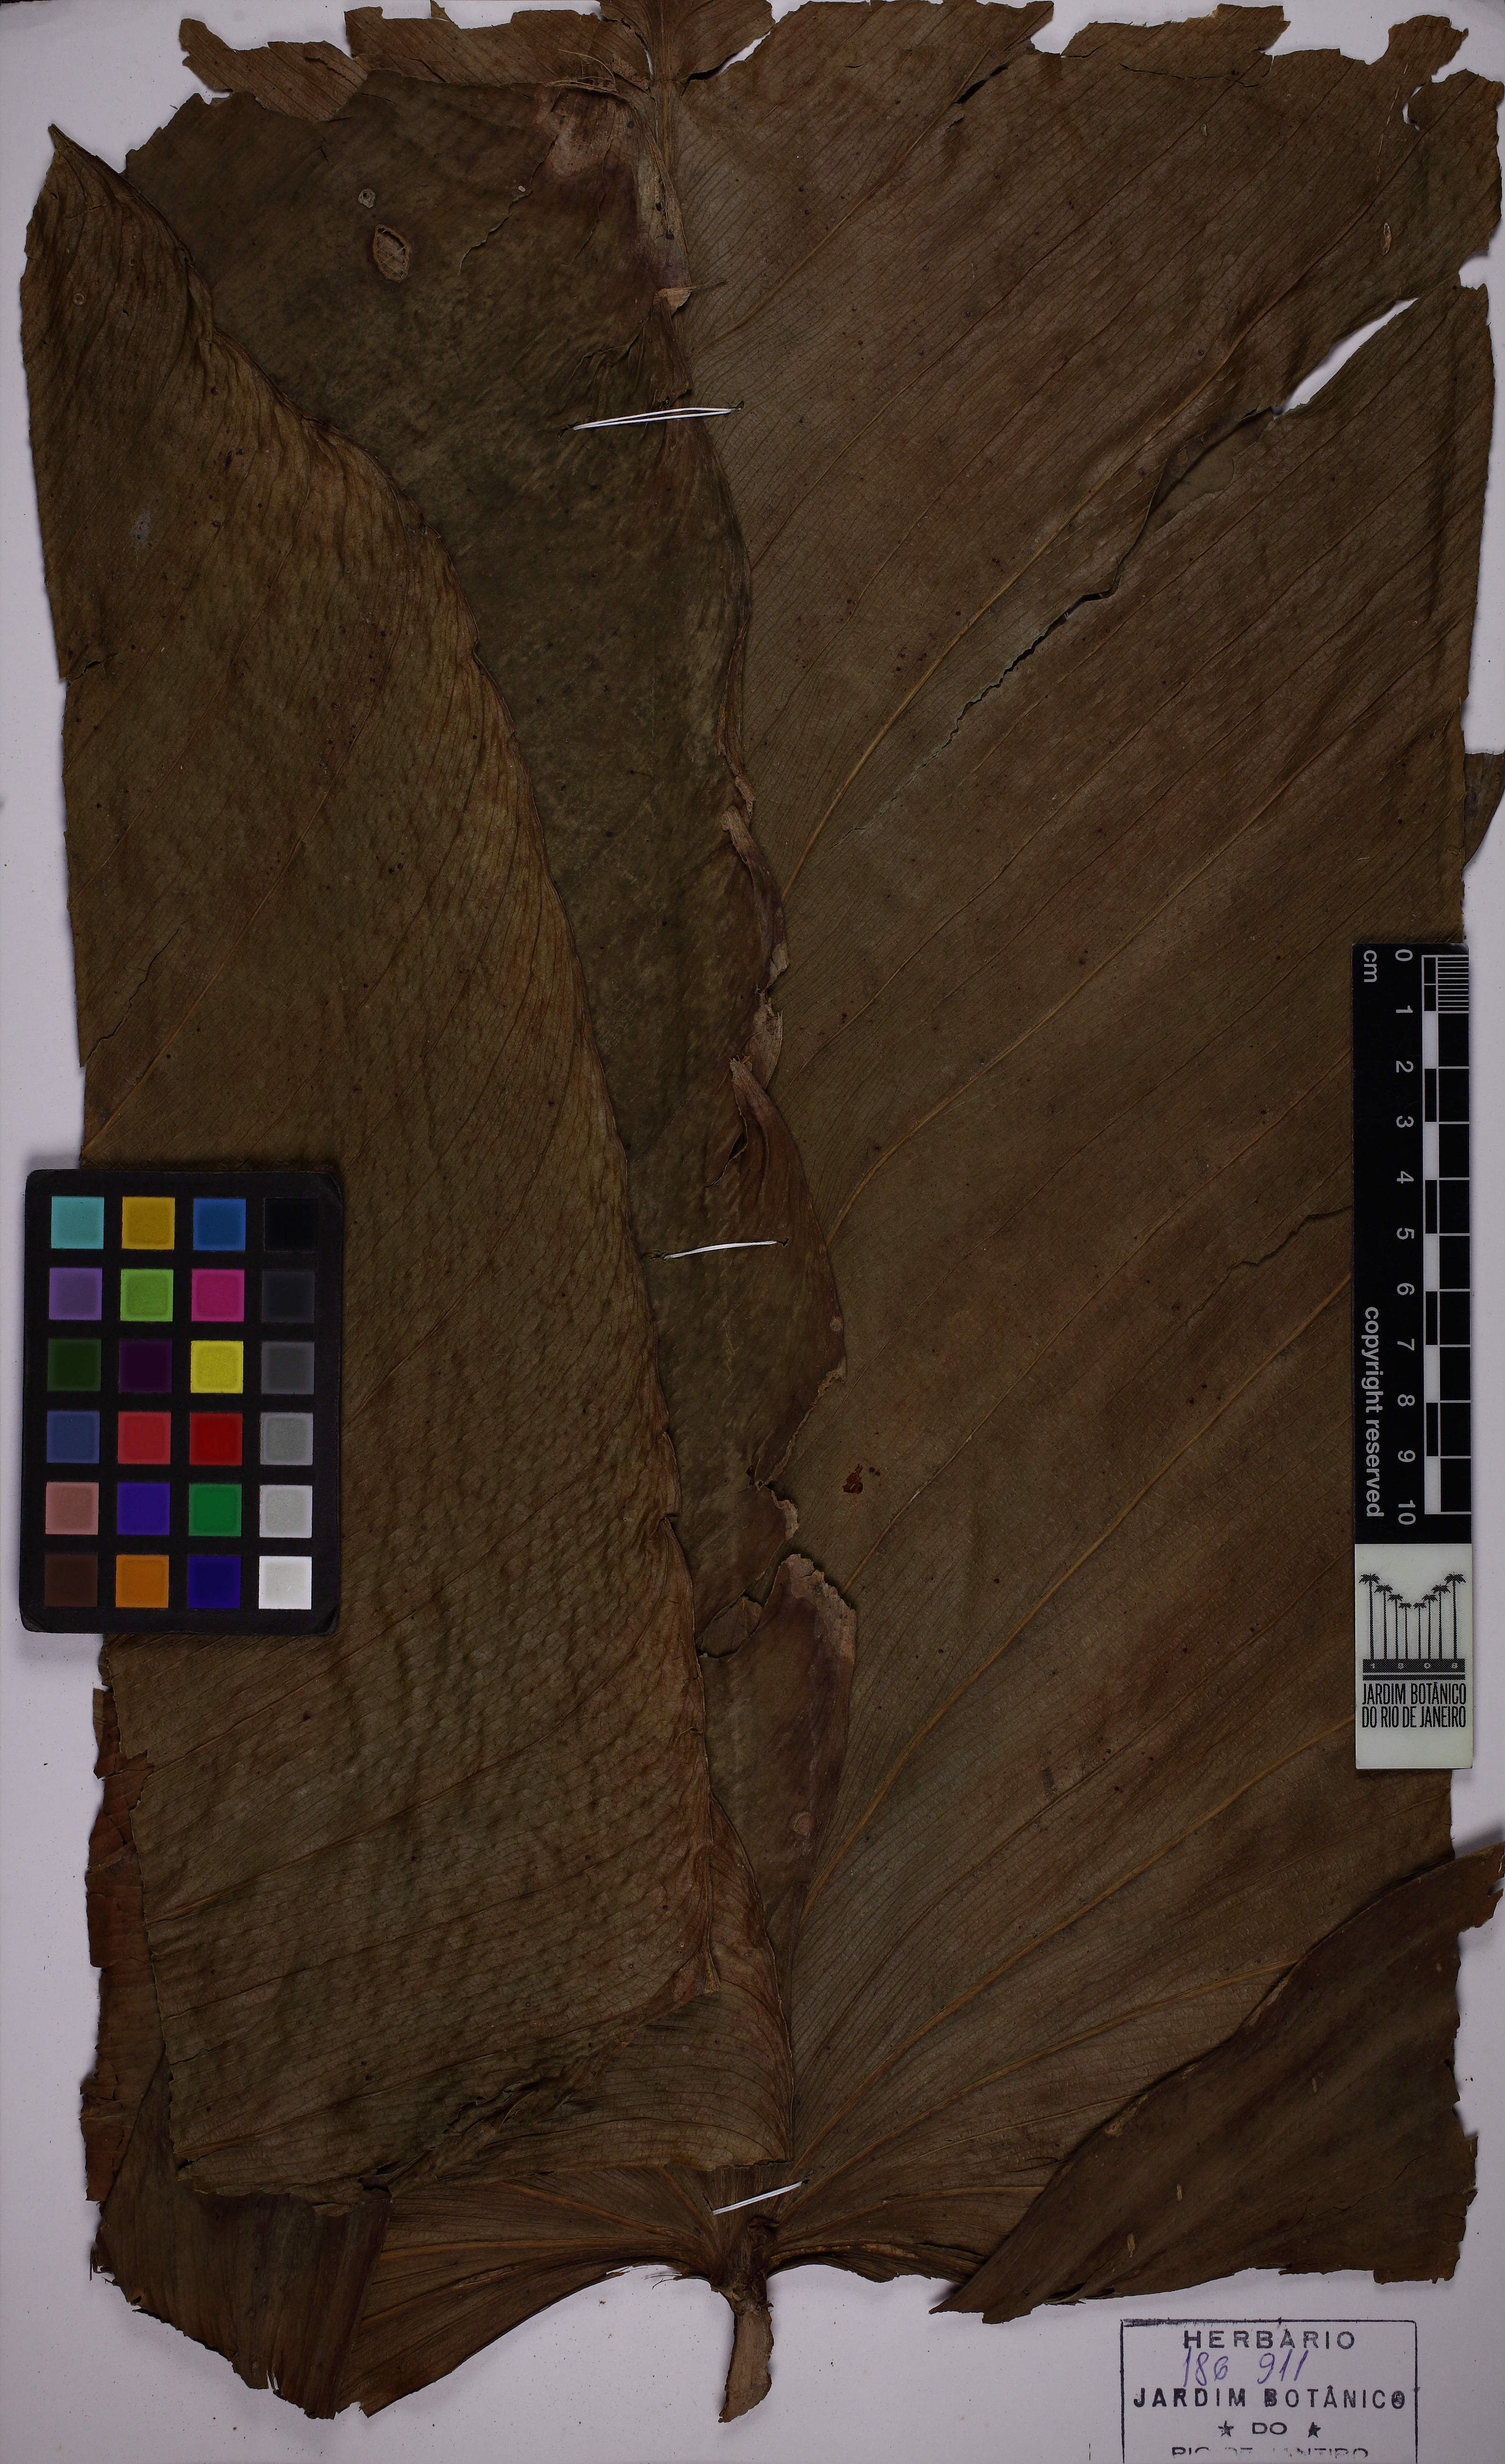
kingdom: Plantae
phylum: Tracheophyta
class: Liliopsida
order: Alismatales
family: Araceae
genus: Philodendron
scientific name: Philodendron
